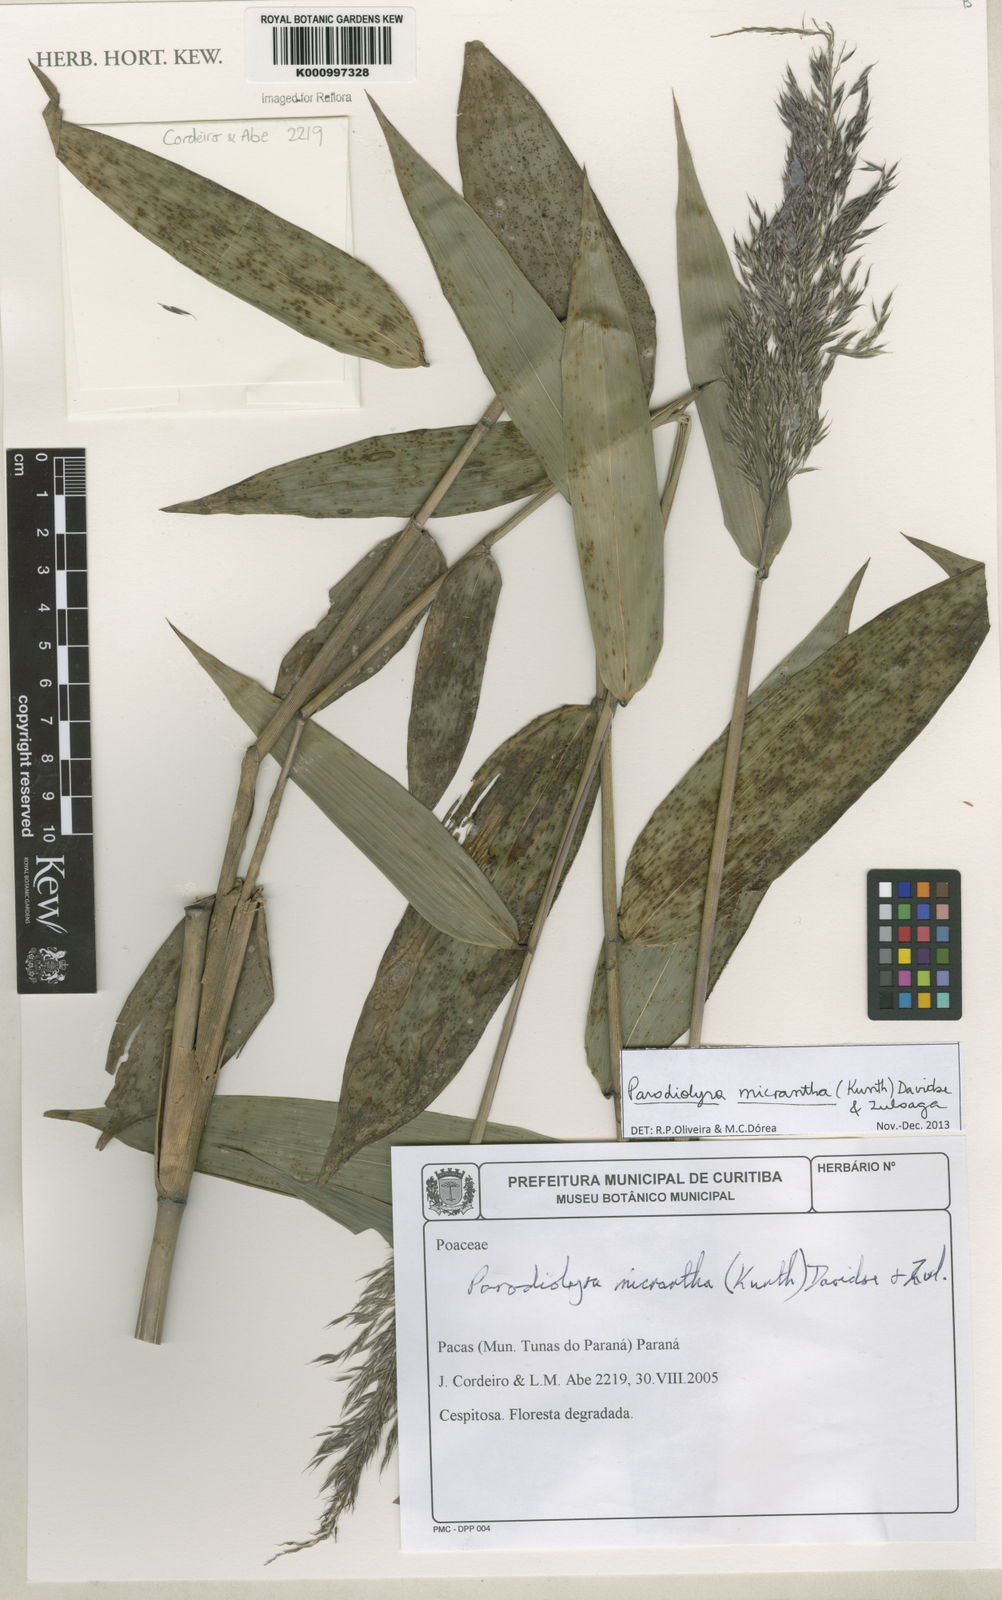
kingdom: Plantae
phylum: Tracheophyta
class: Liliopsida
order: Poales
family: Poaceae
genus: Taquara
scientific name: Taquara micrantha
